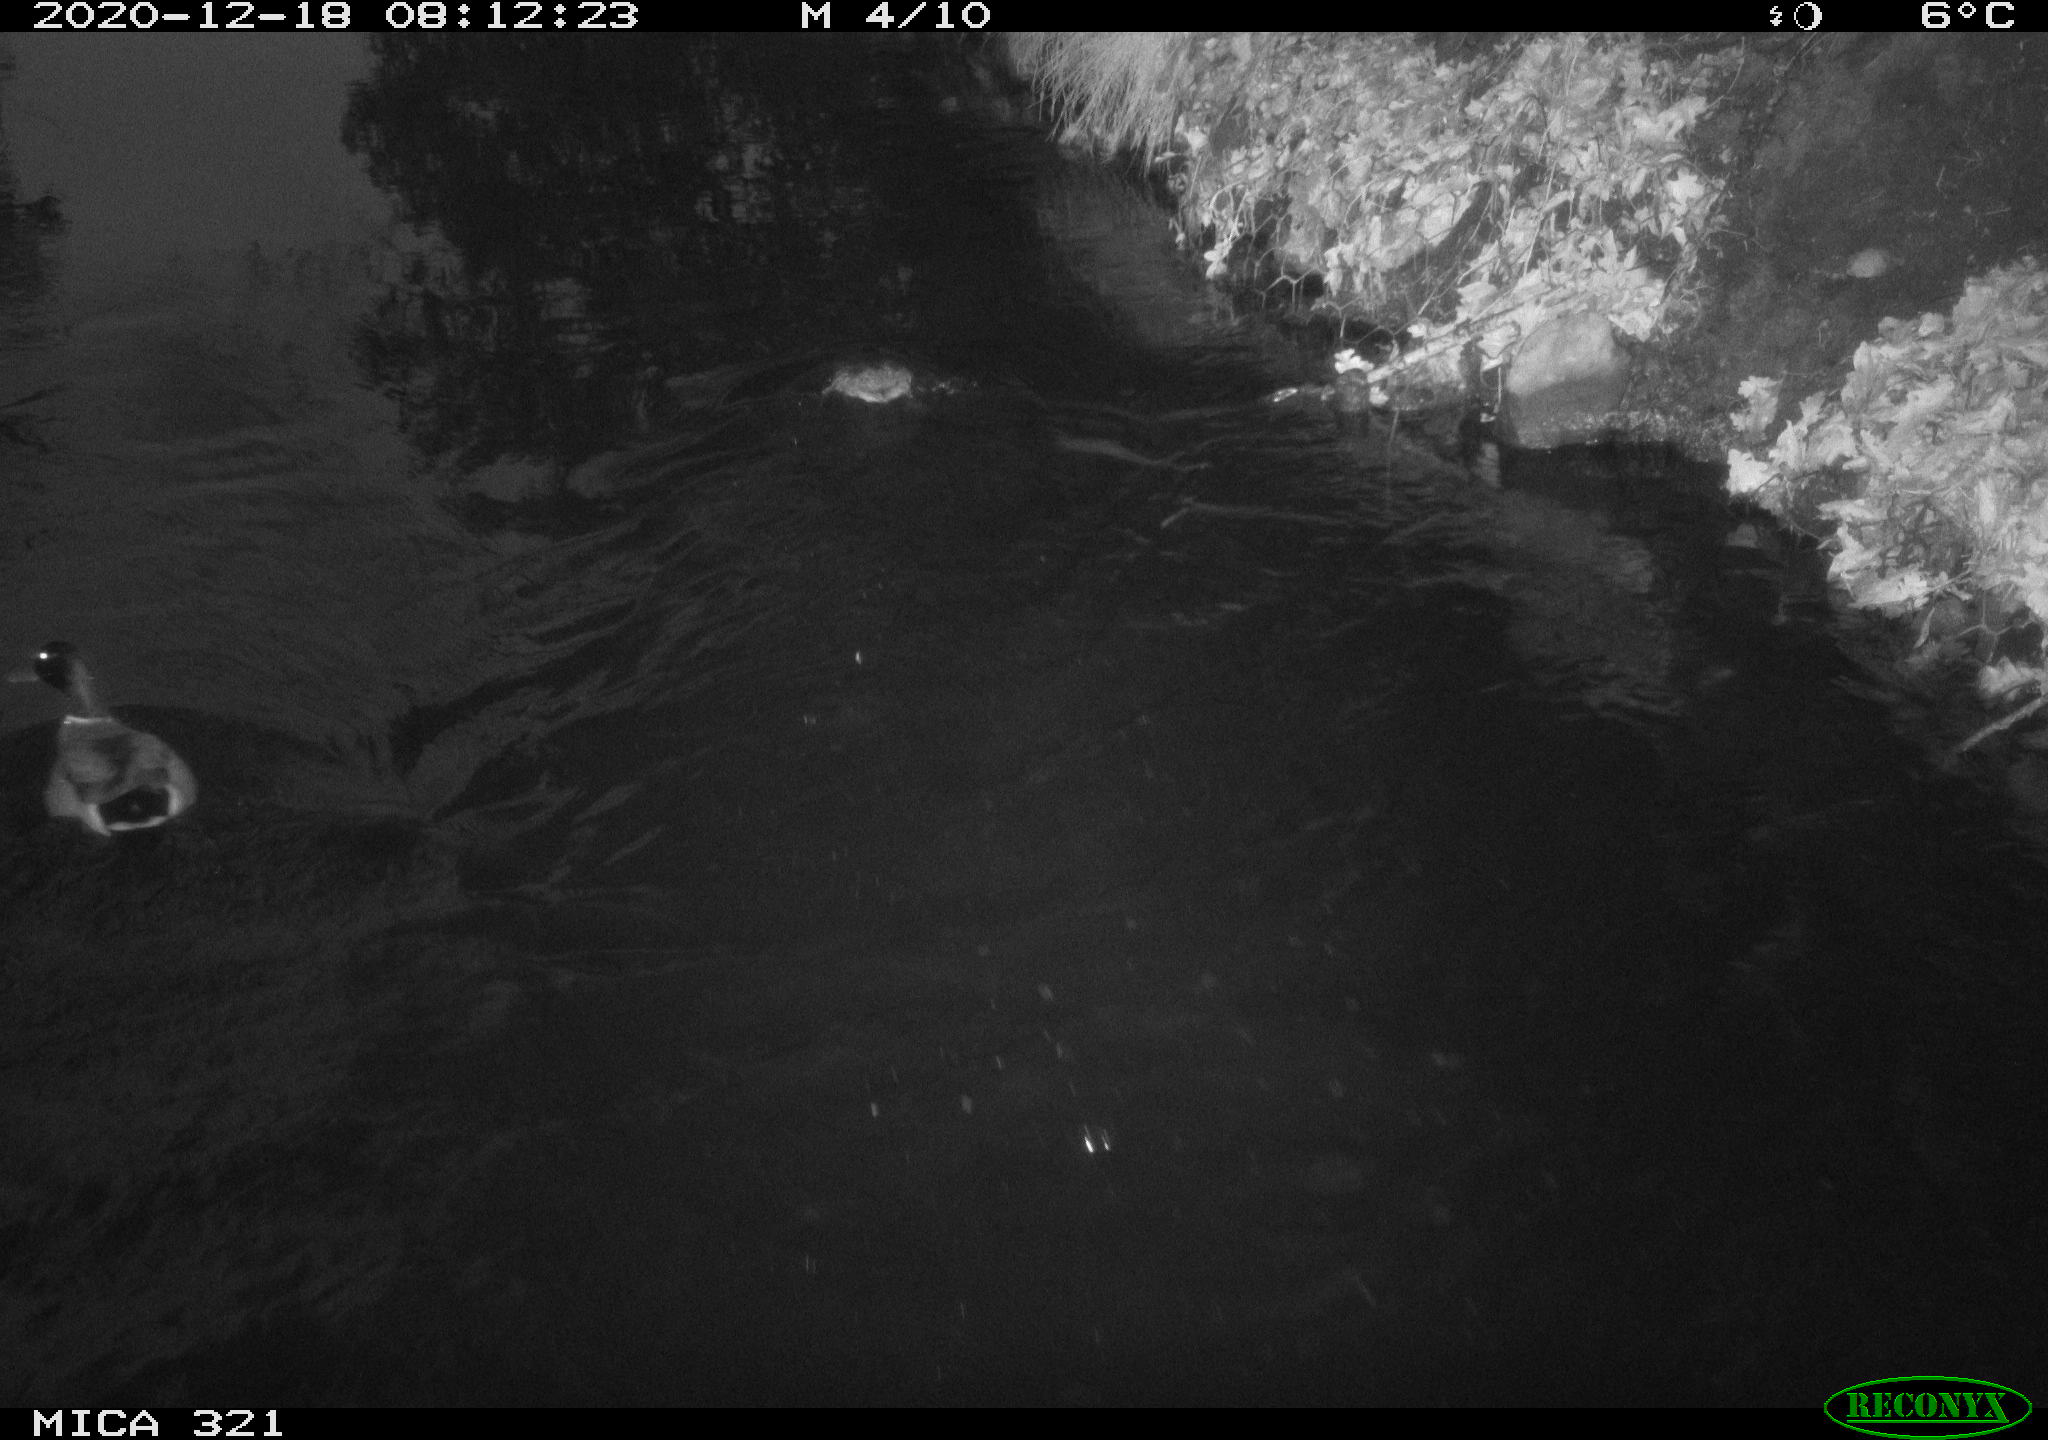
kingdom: Animalia
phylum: Chordata
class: Aves
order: Anseriformes
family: Anatidae
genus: Anas
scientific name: Anas platyrhynchos
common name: Mallard
